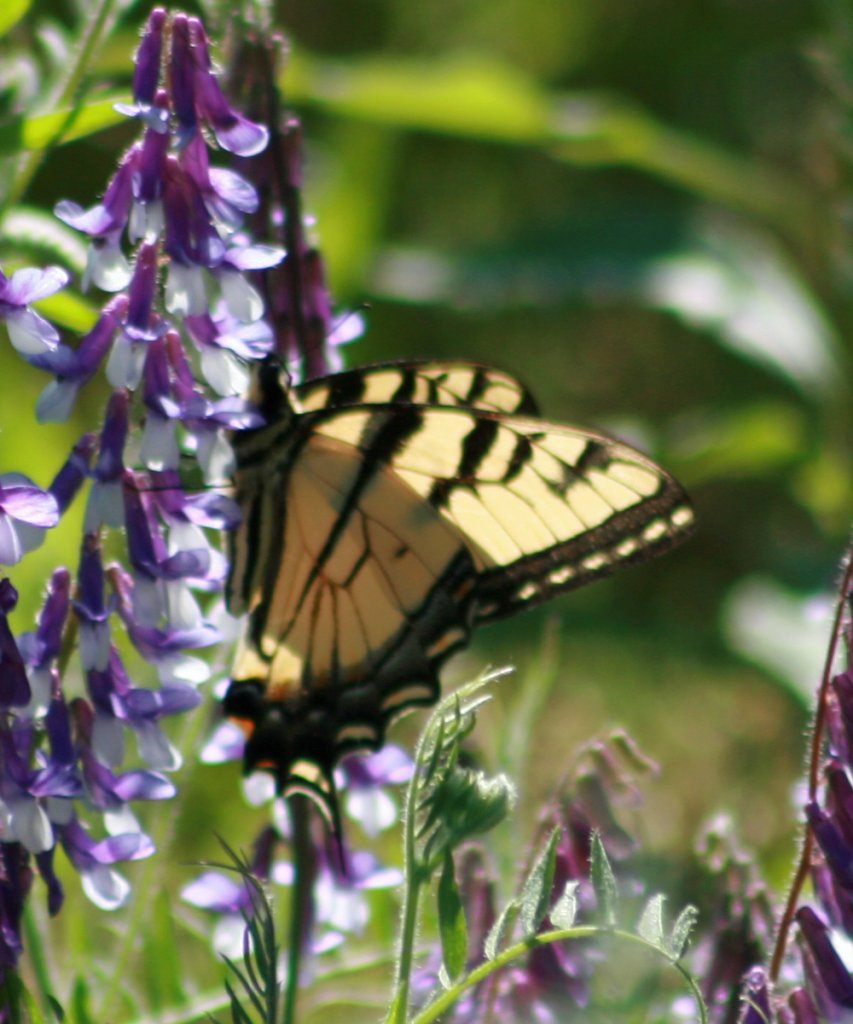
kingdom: Animalia
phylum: Arthropoda
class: Insecta
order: Lepidoptera
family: Papilionidae
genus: Pterourus
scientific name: Pterourus glaucus
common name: Eastern Tiger Swallowtail
